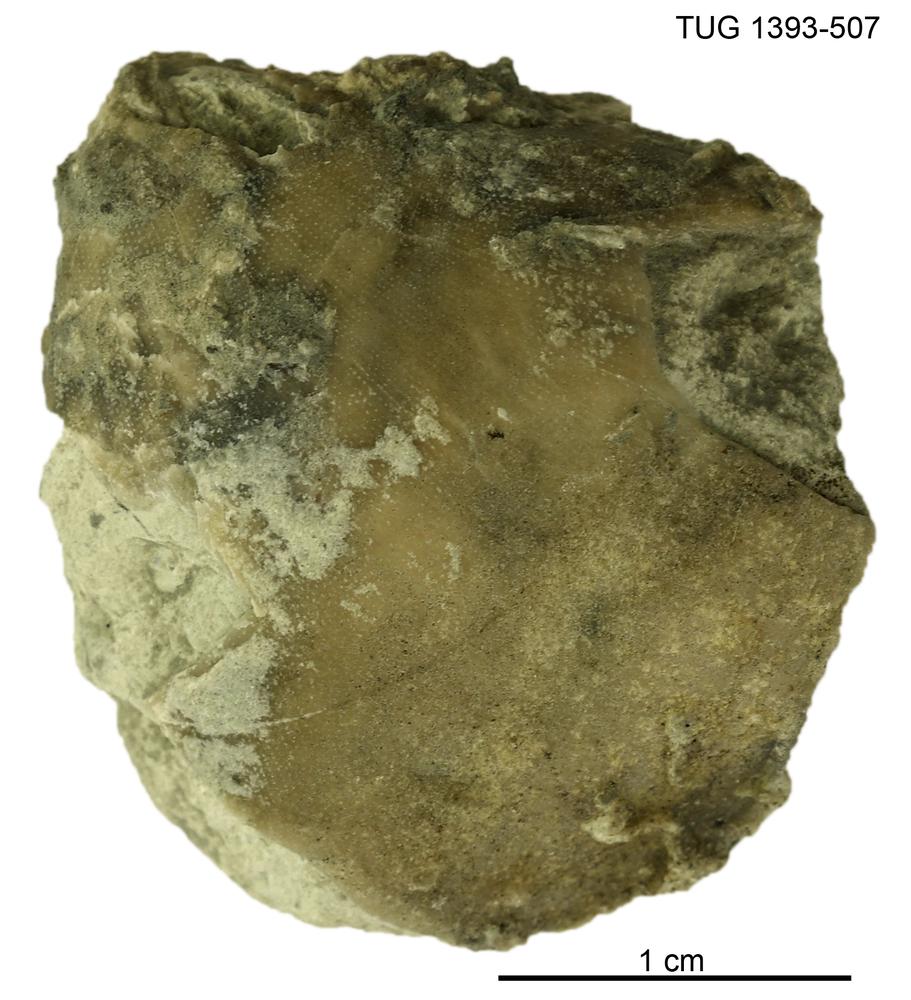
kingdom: Animalia
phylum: Brachiopoda
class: Rhynchonellata
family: Porambonitidae
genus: Porambonites
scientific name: Porambonites
